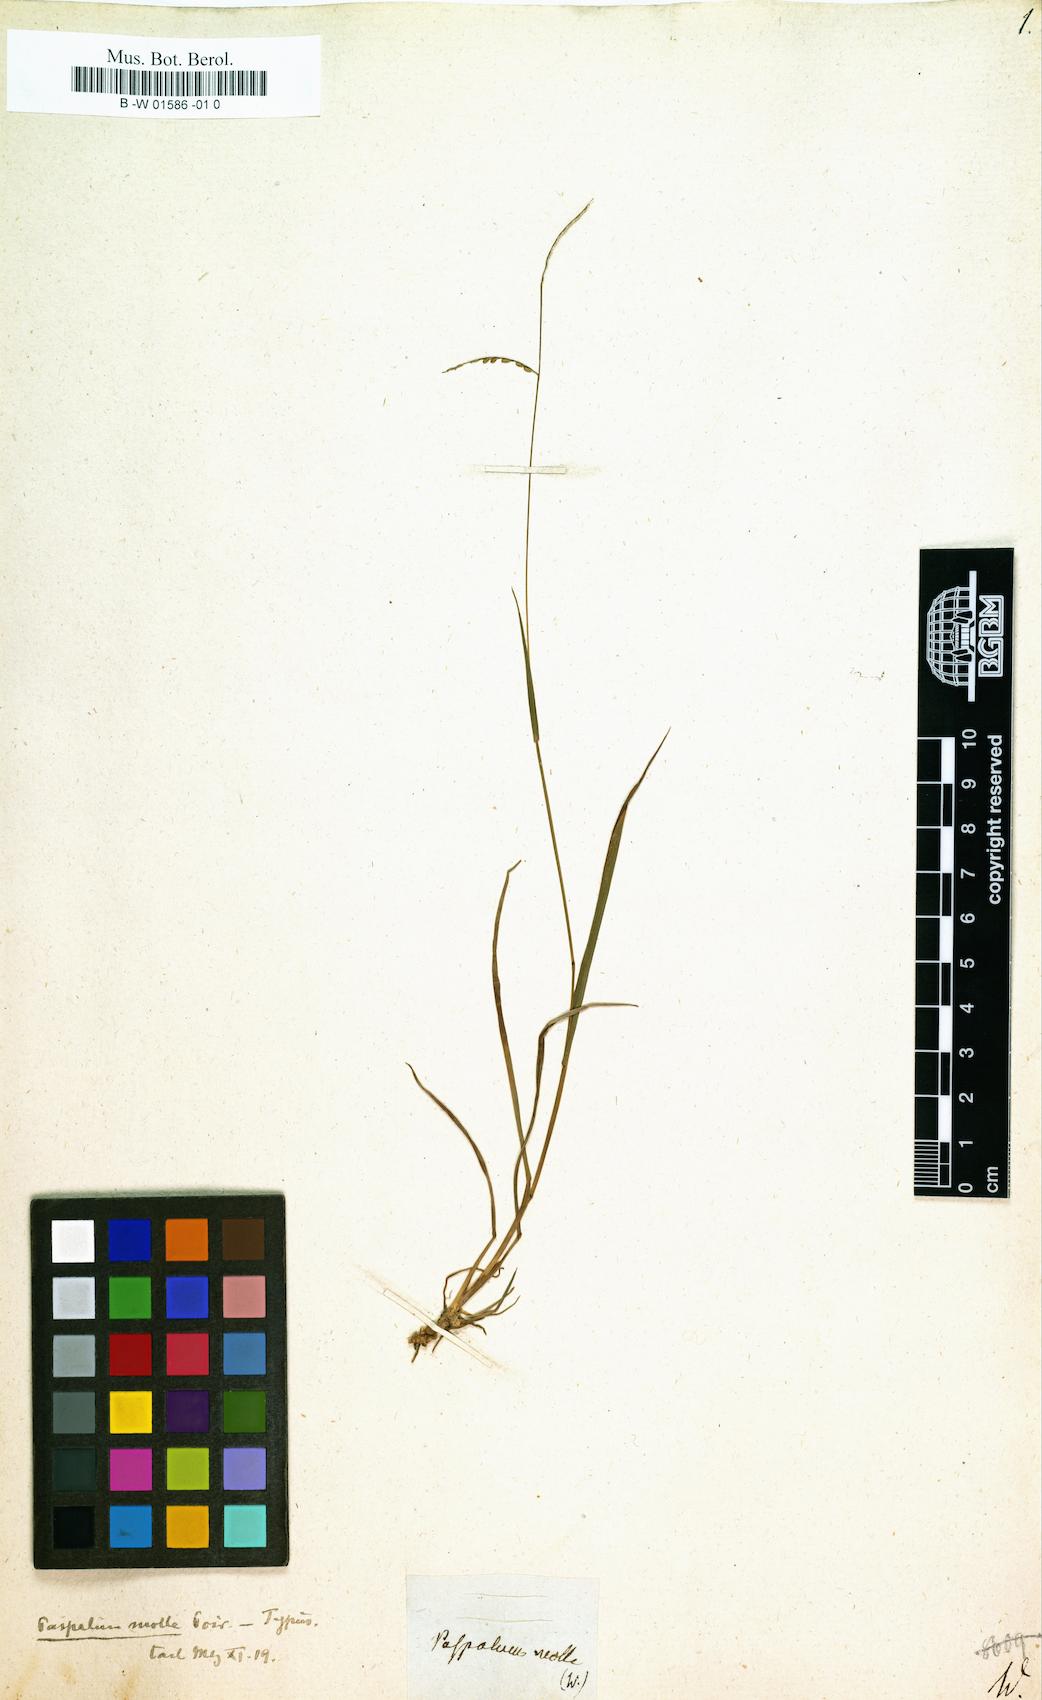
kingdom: Plantae
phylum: Tracheophyta
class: Liliopsida
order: Poales
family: Poaceae
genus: Paspalus
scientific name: Paspalus
